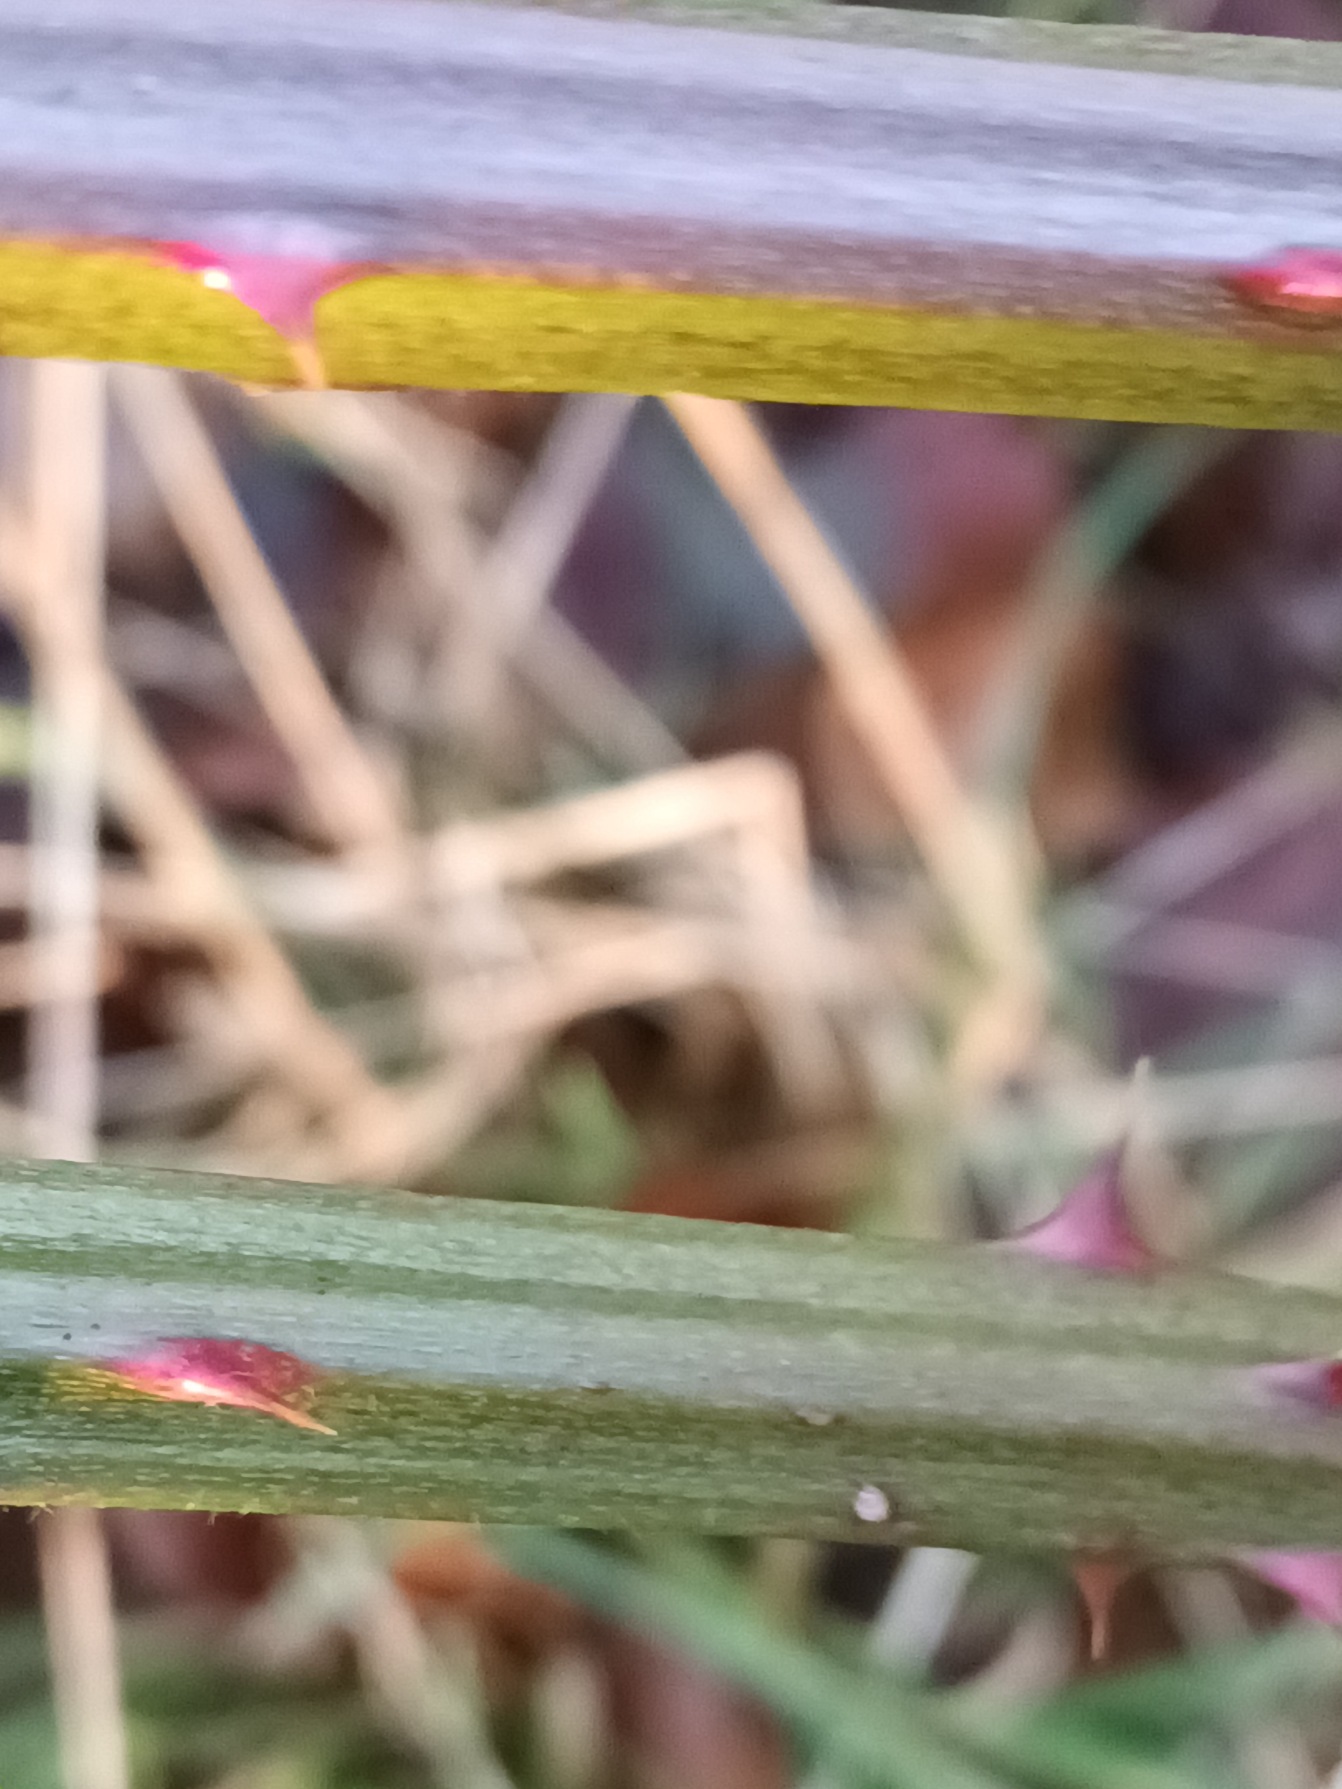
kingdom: Plantae
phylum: Tracheophyta
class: Magnoliopsida
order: Rosales
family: Rosaceae
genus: Rubus
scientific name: Rubus armeniacus
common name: Armensk brombær
